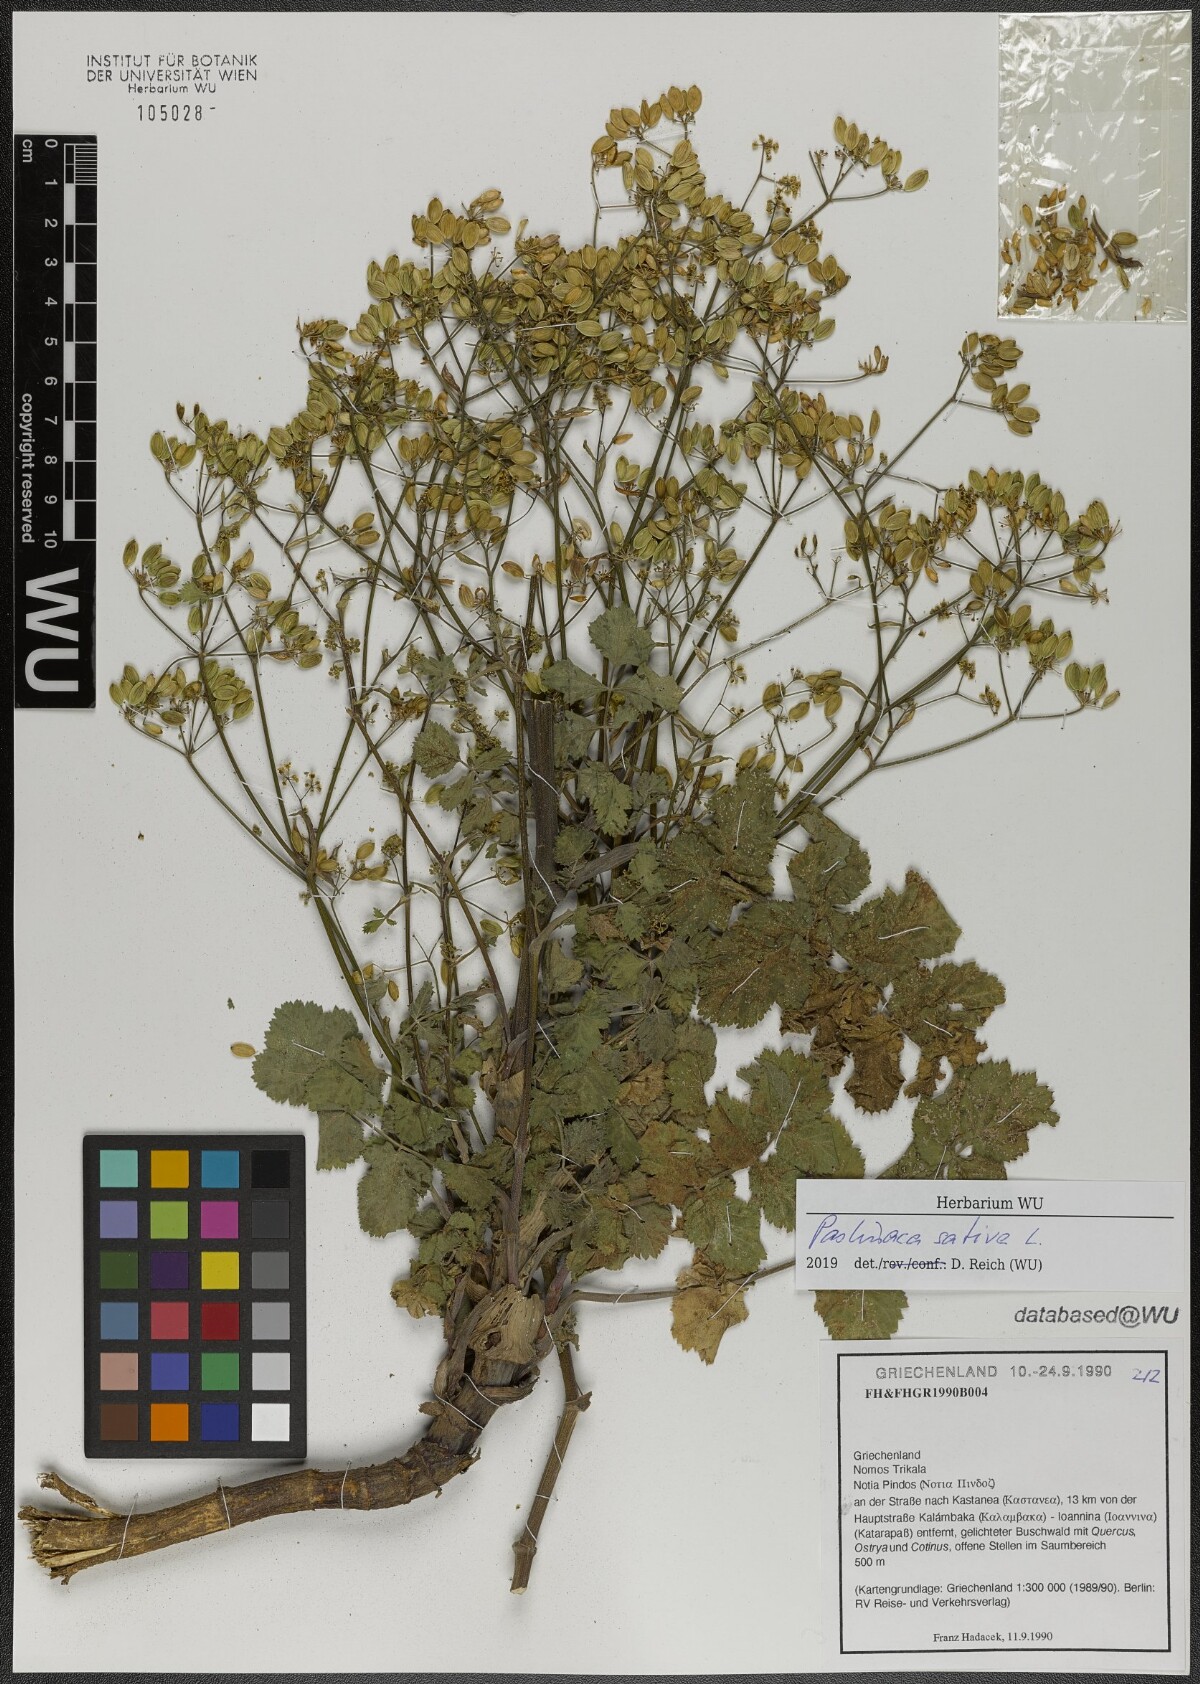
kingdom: Plantae
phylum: Tracheophyta
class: Magnoliopsida
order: Apiales
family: Apiaceae
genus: Pastinaca
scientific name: Pastinaca sativa
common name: Wild parsnip
